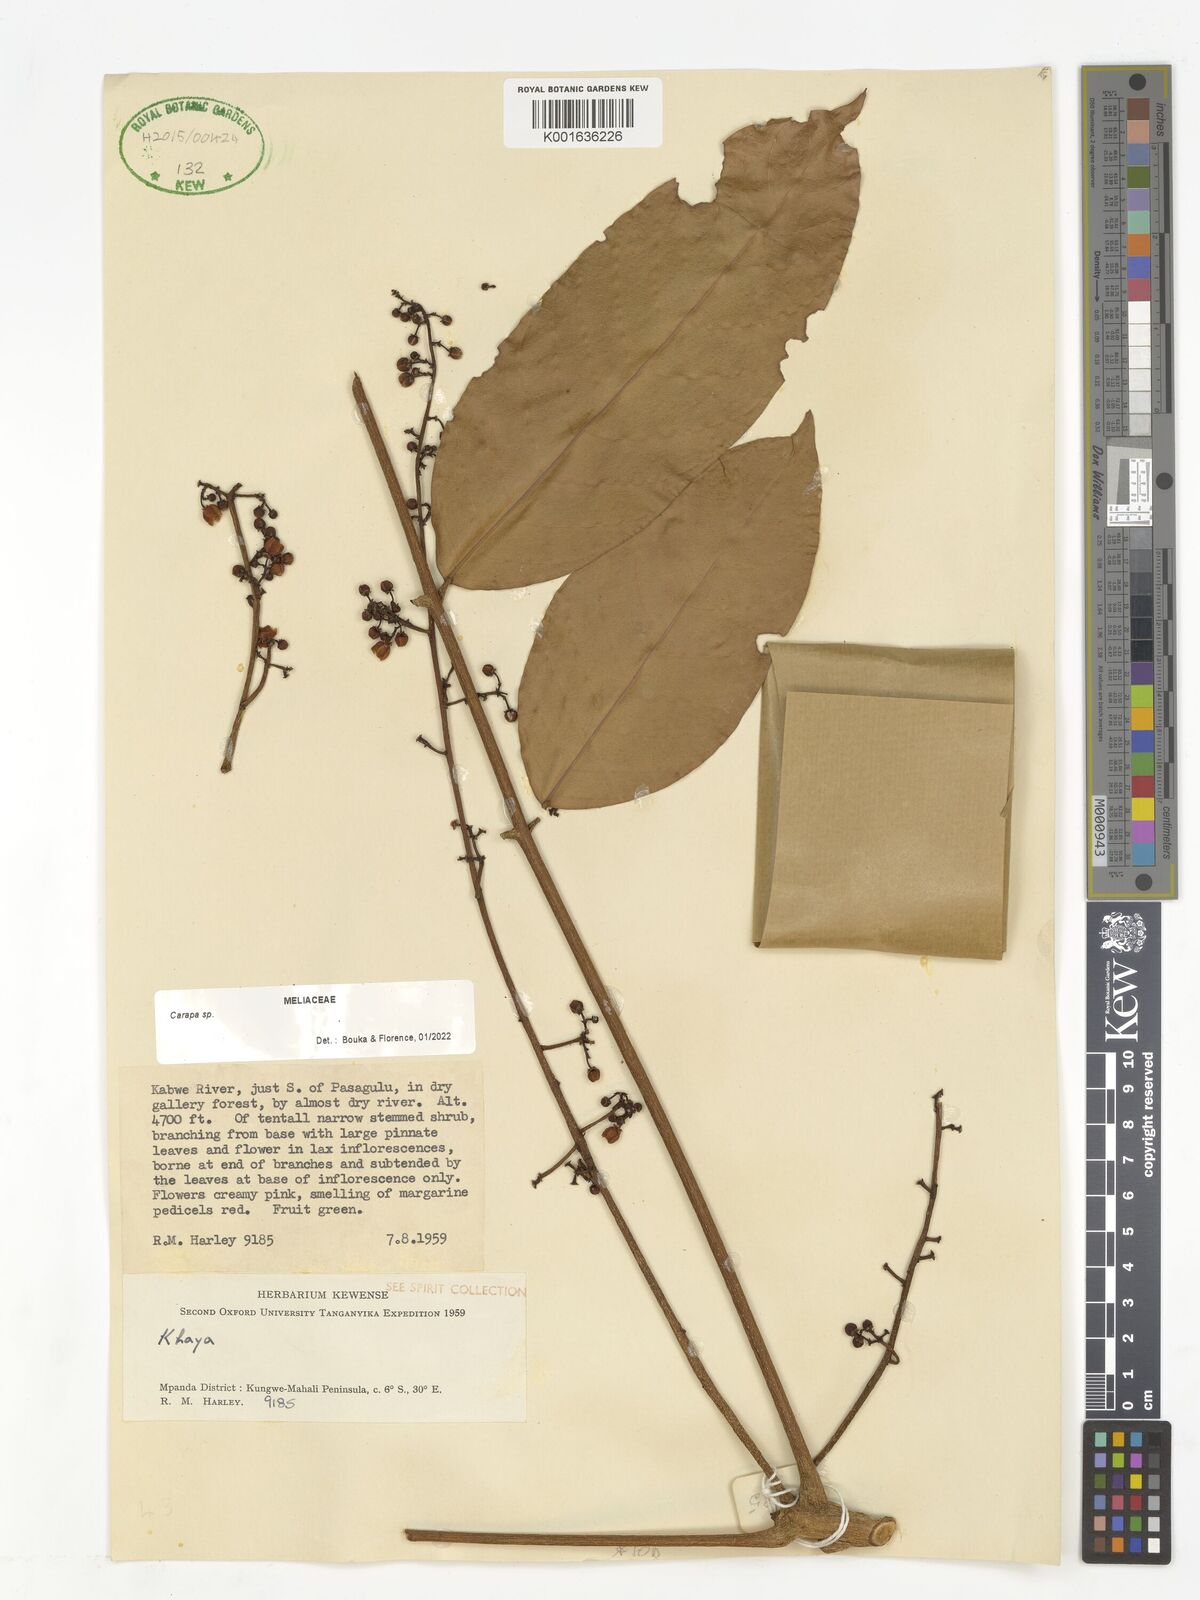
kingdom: Plantae
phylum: Tracheophyta
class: Magnoliopsida
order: Sapindales
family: Meliaceae
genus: Carapa
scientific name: Carapa
